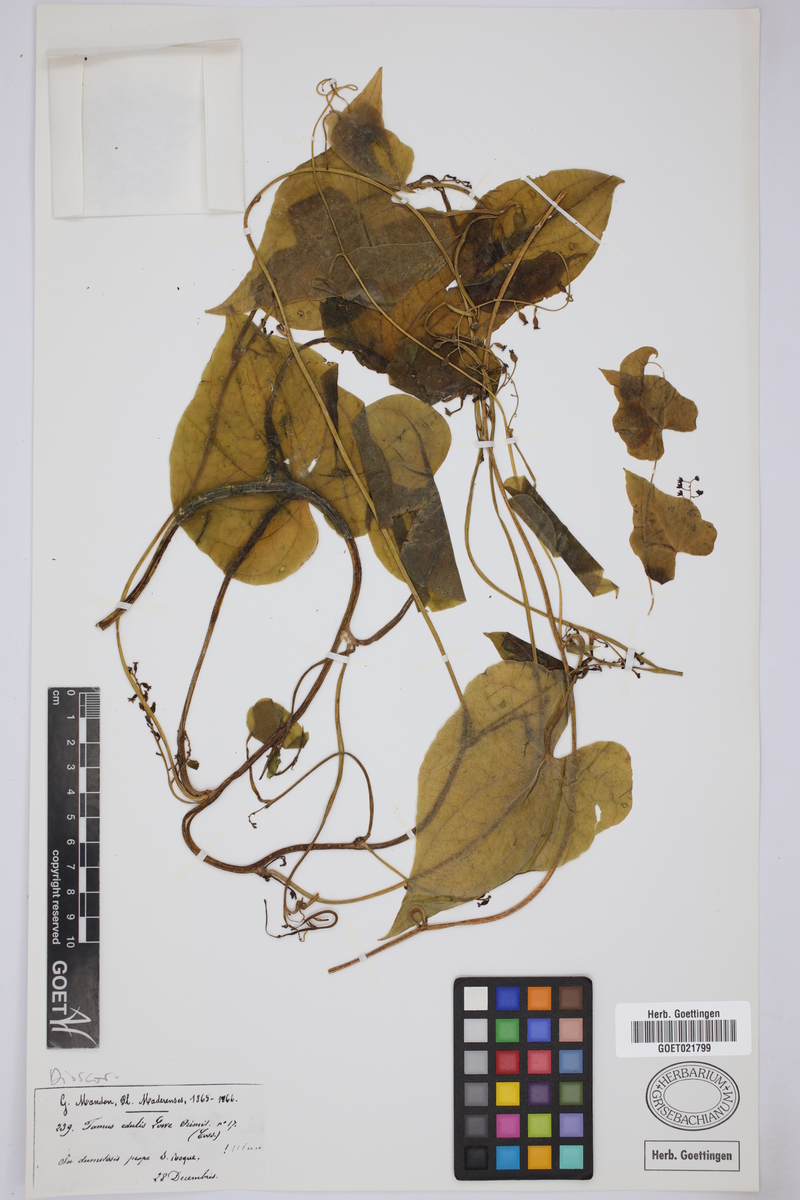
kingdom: Plantae
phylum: Tracheophyta
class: Liliopsida
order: Dioscoreales
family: Dioscoreaceae
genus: Dioscorea
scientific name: Dioscorea communis
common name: Black-bindweed
